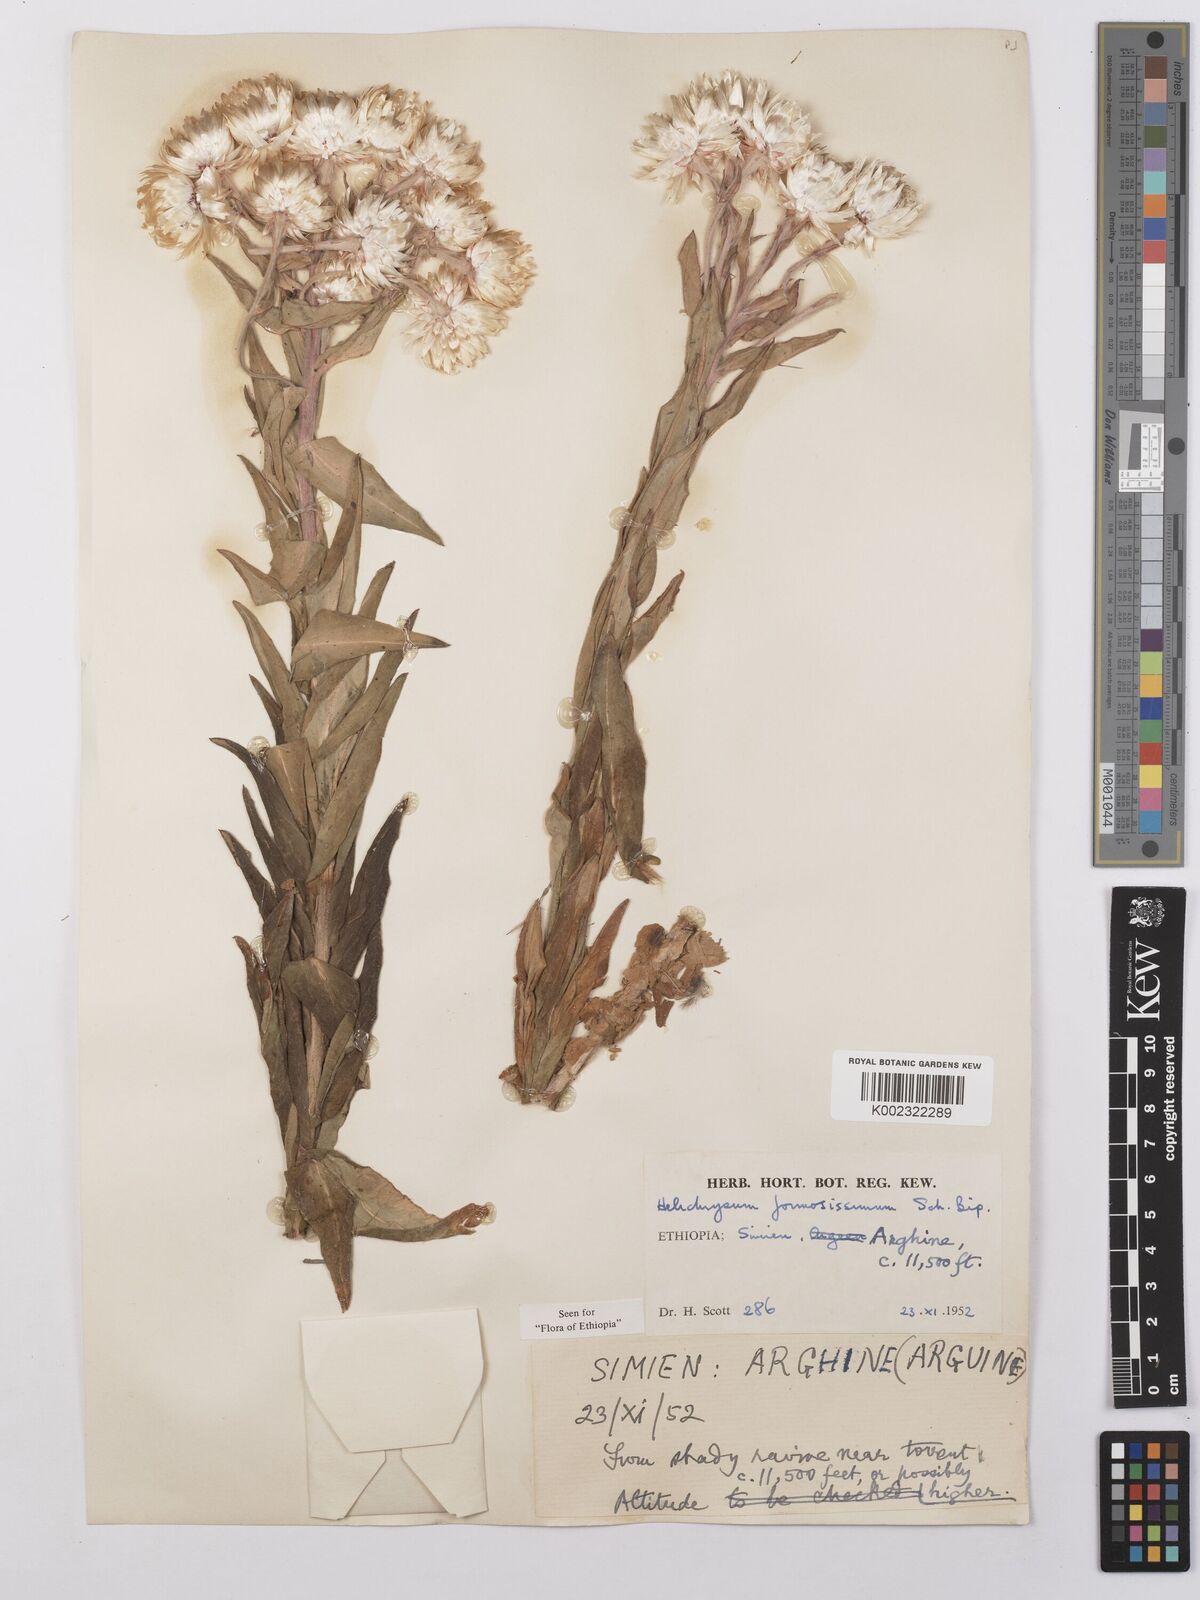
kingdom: Plantae
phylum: Tracheophyta
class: Magnoliopsida
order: Asterales
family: Asteraceae
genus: Helichrysum
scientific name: Helichrysum formosissimum
